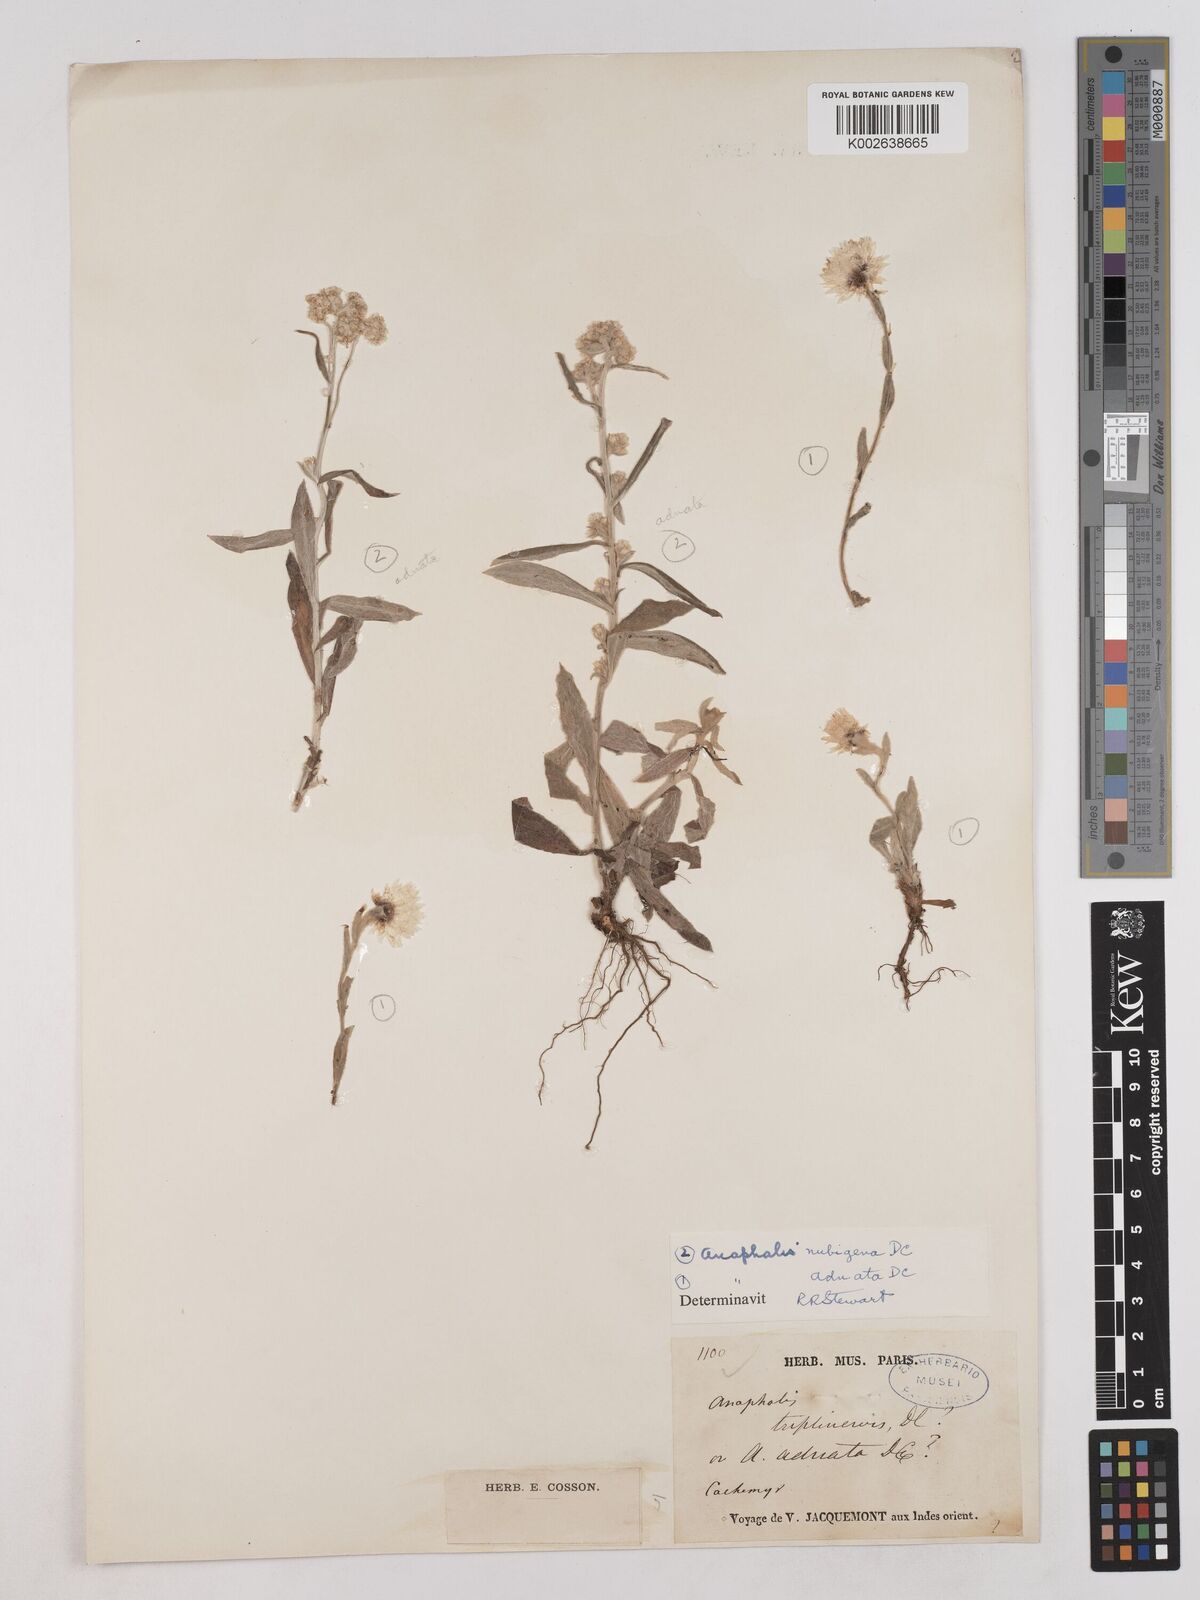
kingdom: Plantae
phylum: Tracheophyta
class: Magnoliopsida
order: Asterales
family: Asteraceae
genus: Anaphalioides
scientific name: Anaphalioides trinervis
